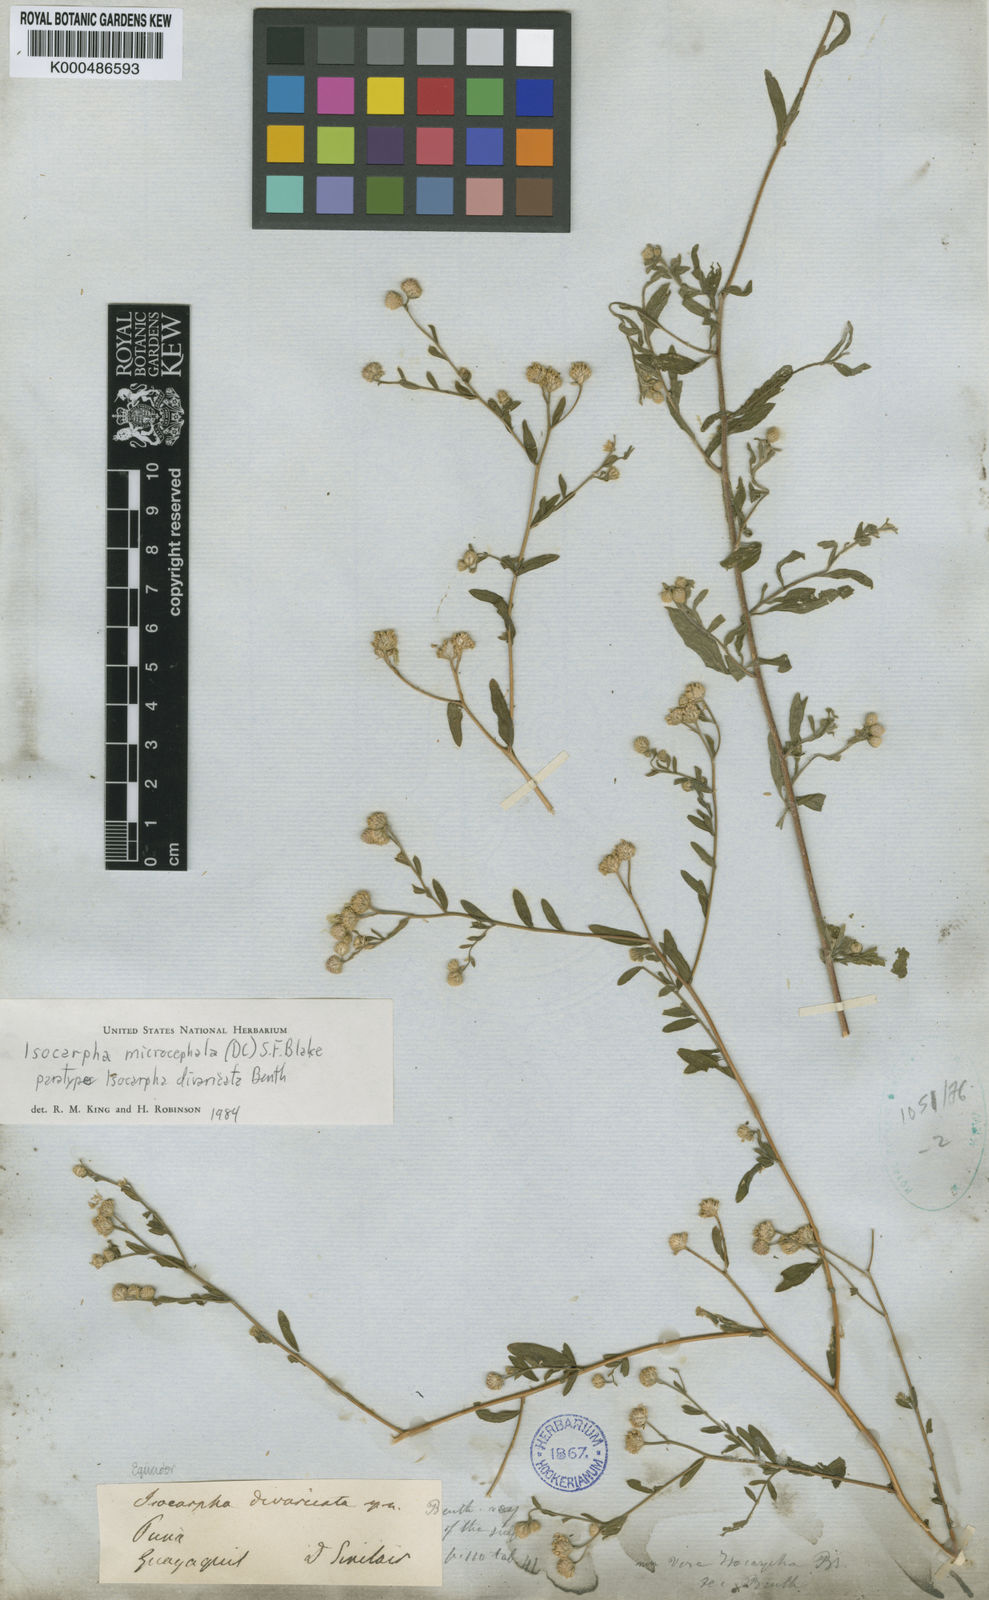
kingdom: Plantae
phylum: Tracheophyta
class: Magnoliopsida
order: Asterales
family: Asteraceae
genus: Isocarpha
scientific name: Isocarpha microcephala
